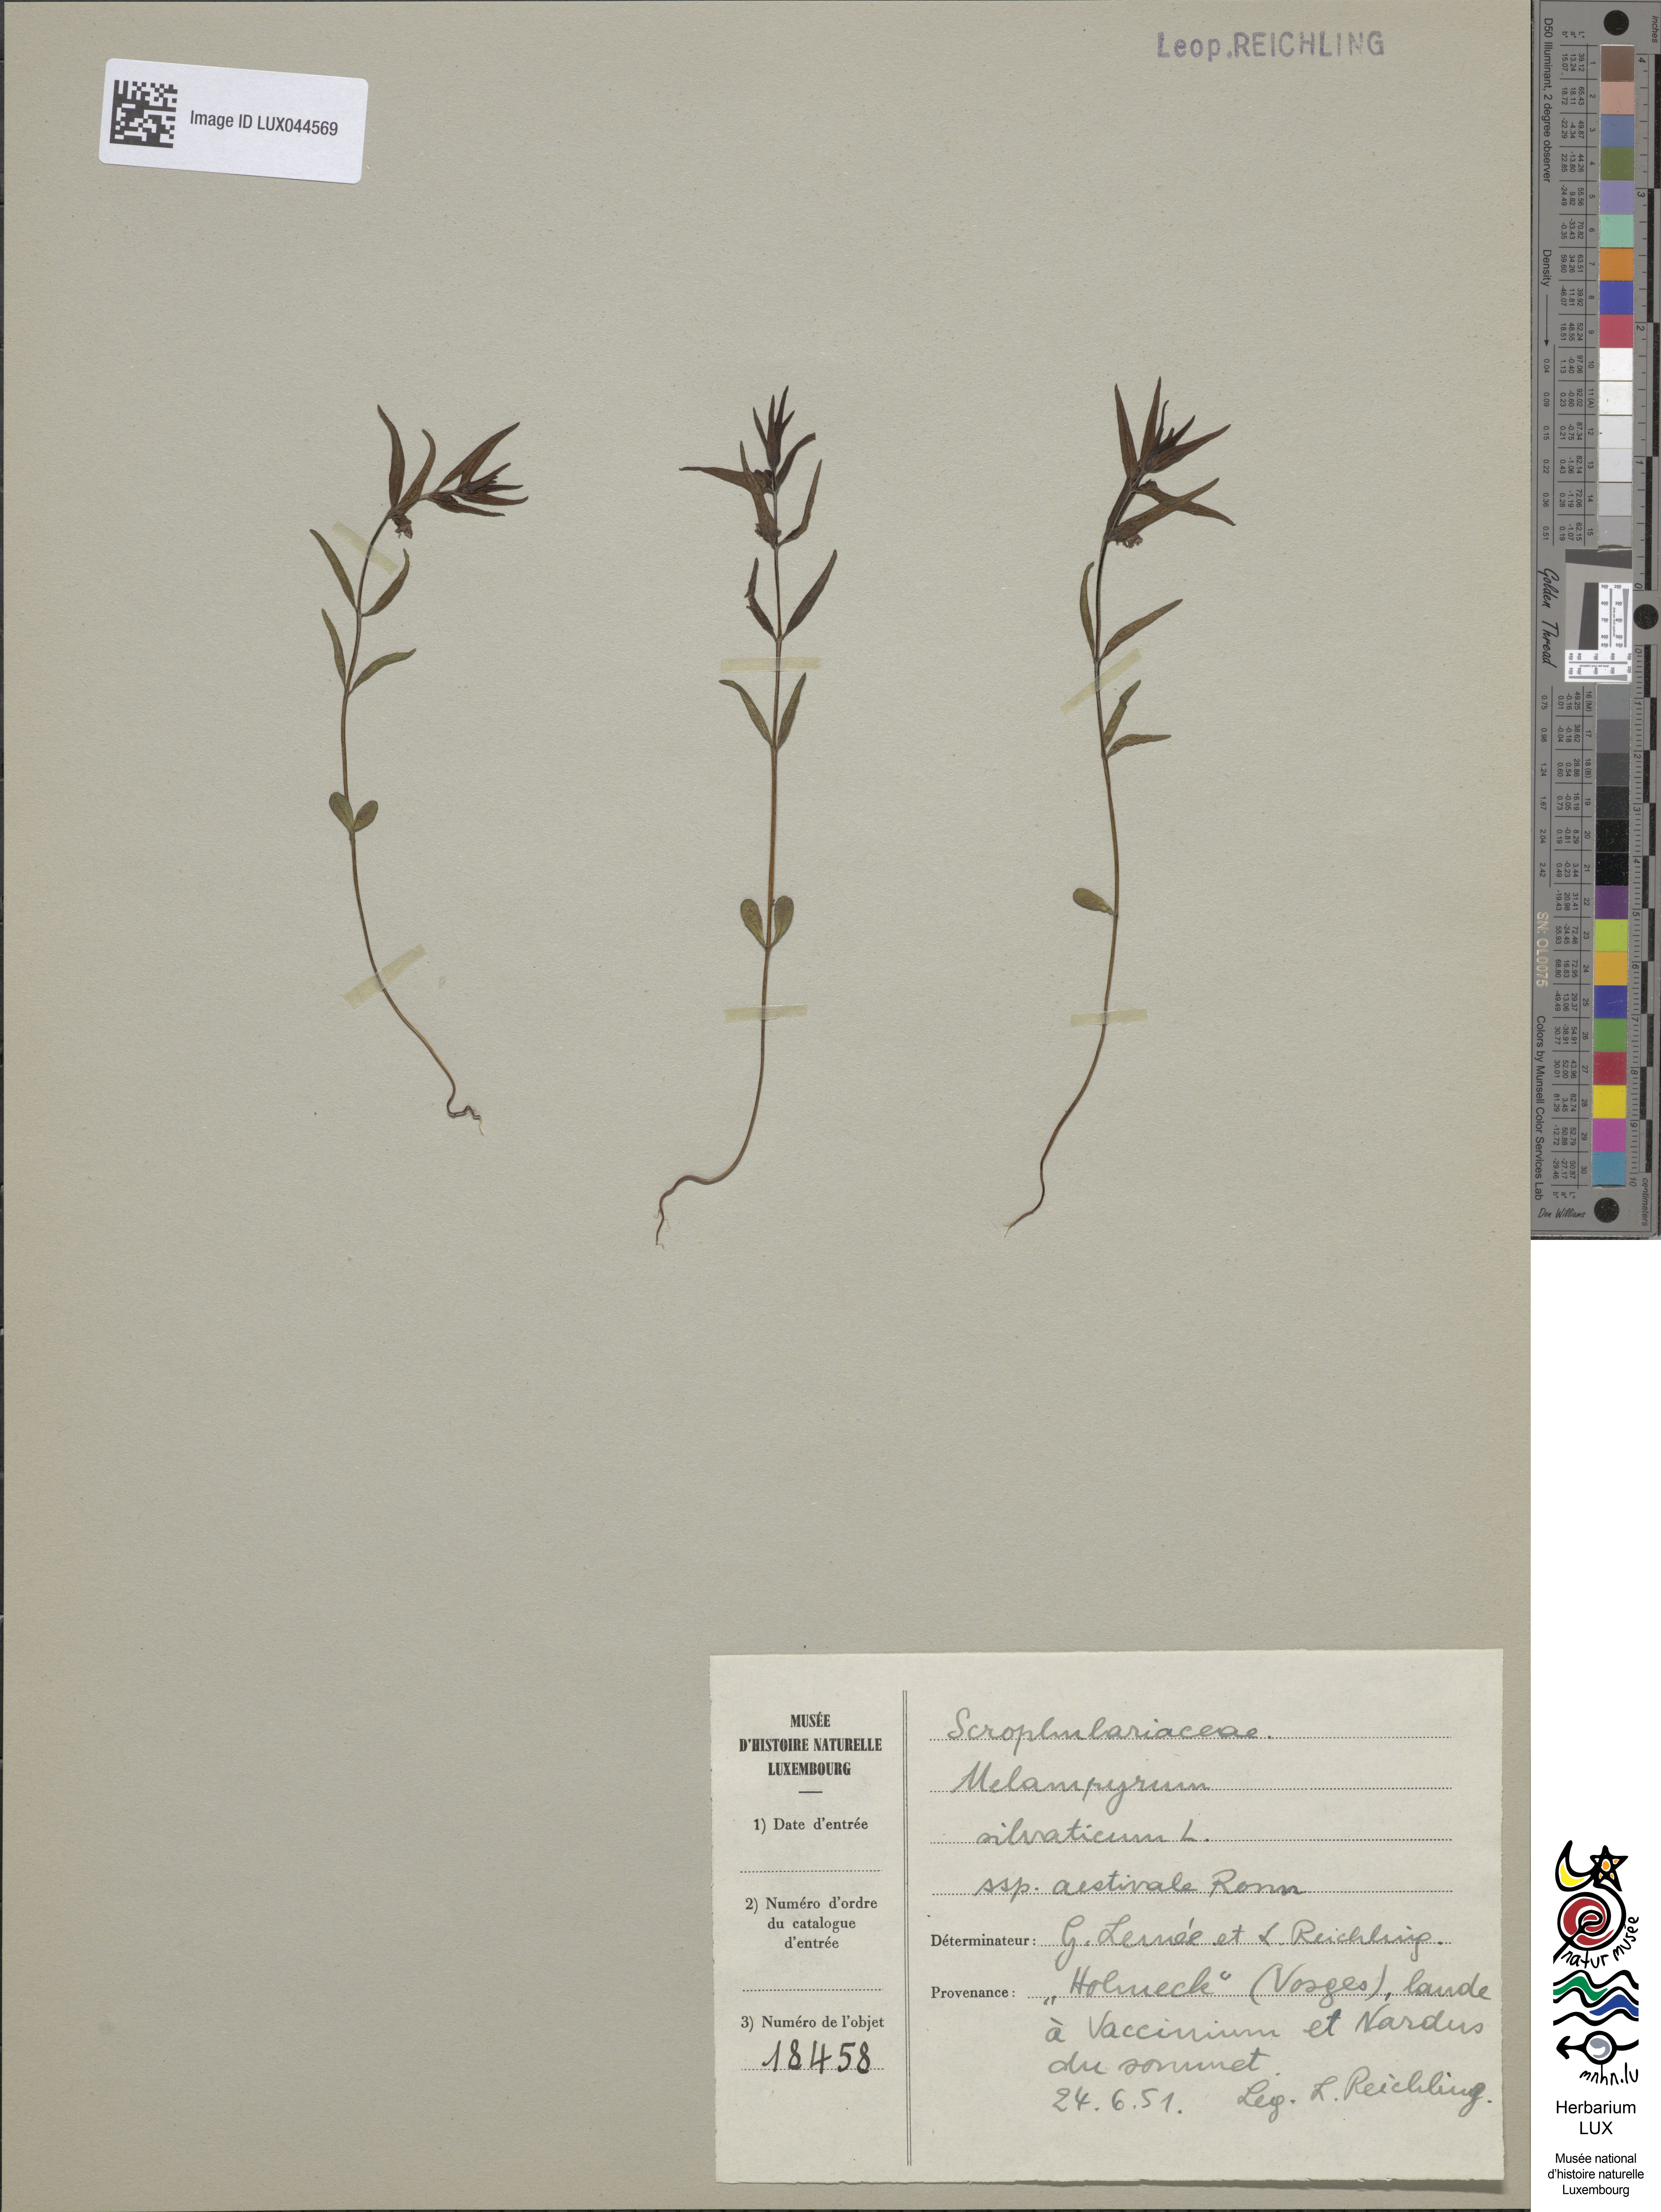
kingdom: Plantae
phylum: Tracheophyta
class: Magnoliopsida
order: Lamiales
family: Orobanchaceae
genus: Melampyrum
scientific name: Melampyrum sylvaticum
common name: Small cow-wheat
